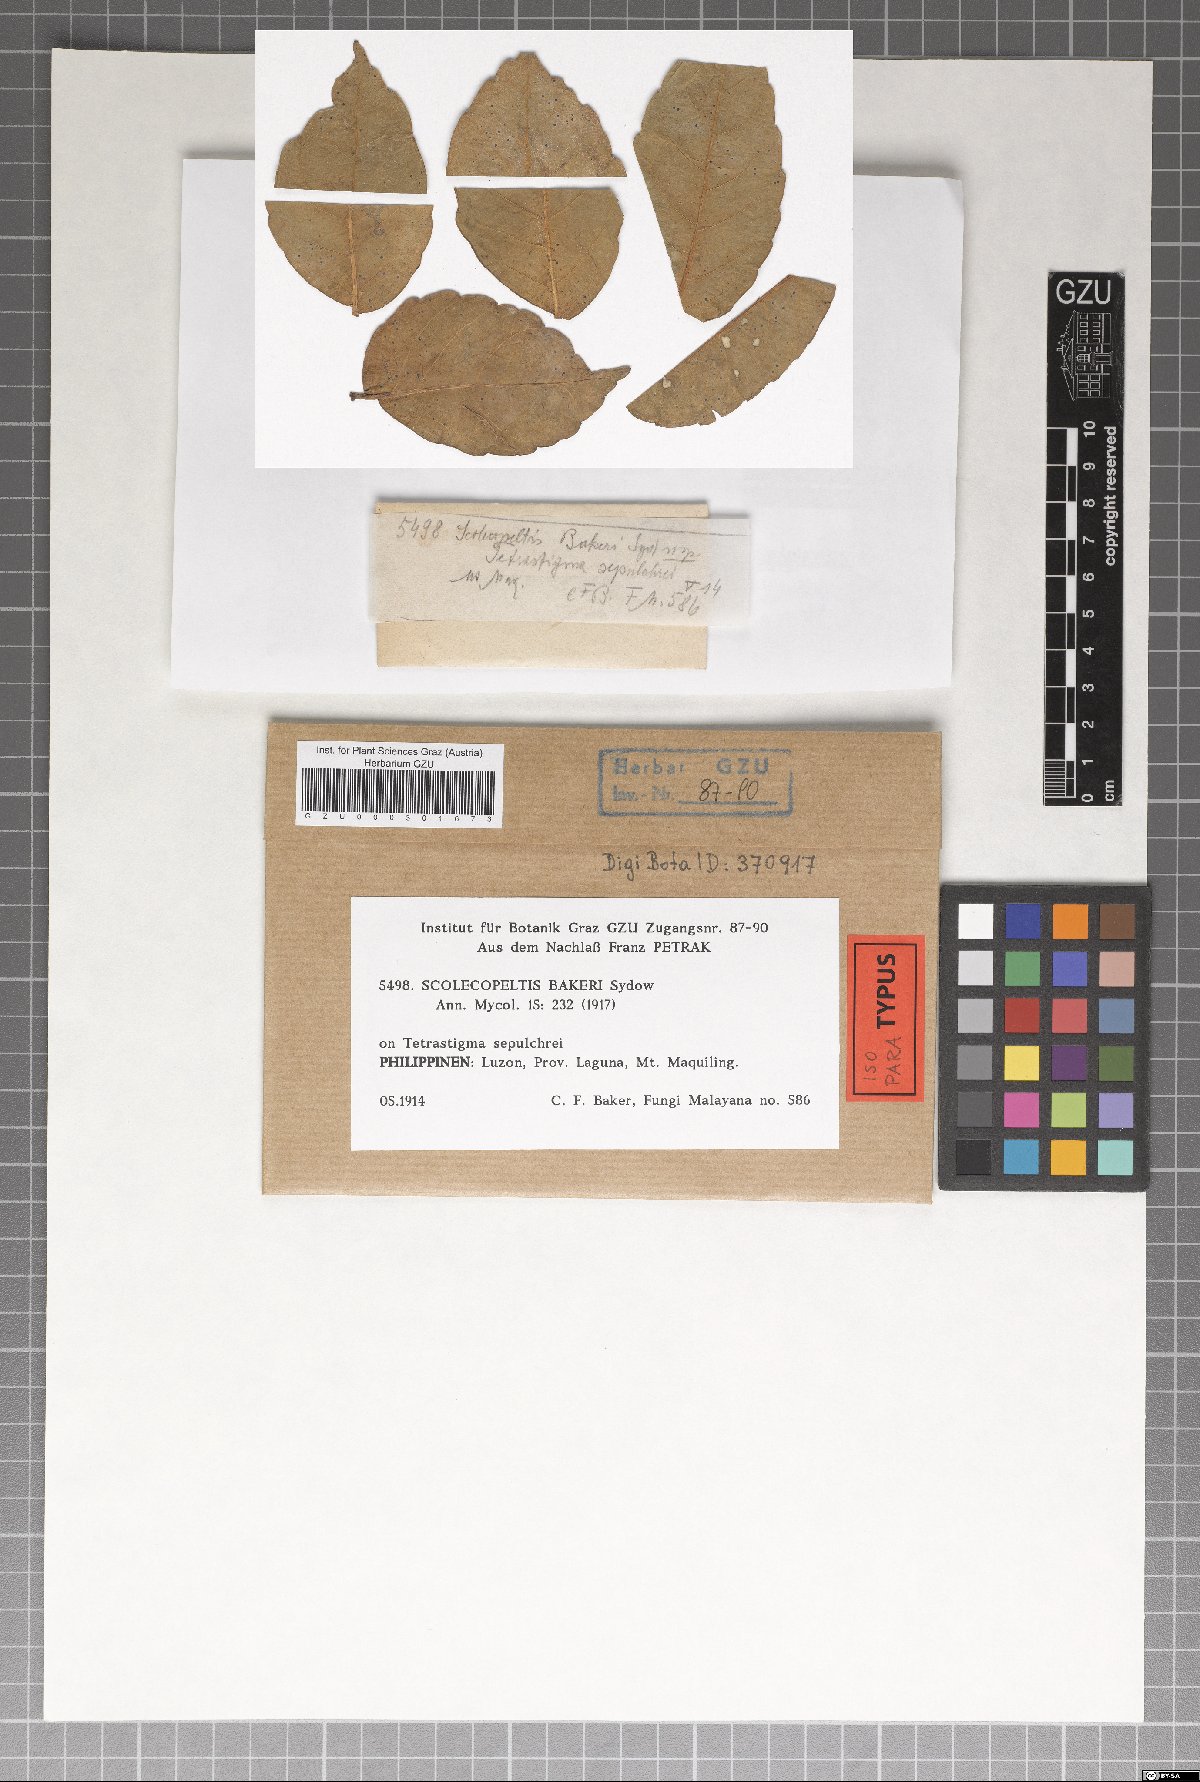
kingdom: Fungi
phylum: Ascomycota
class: Dothideomycetes
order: Microthyriales
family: Micropeltidaceae
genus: Scolecopeltis
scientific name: Scolecopeltis bakeri
